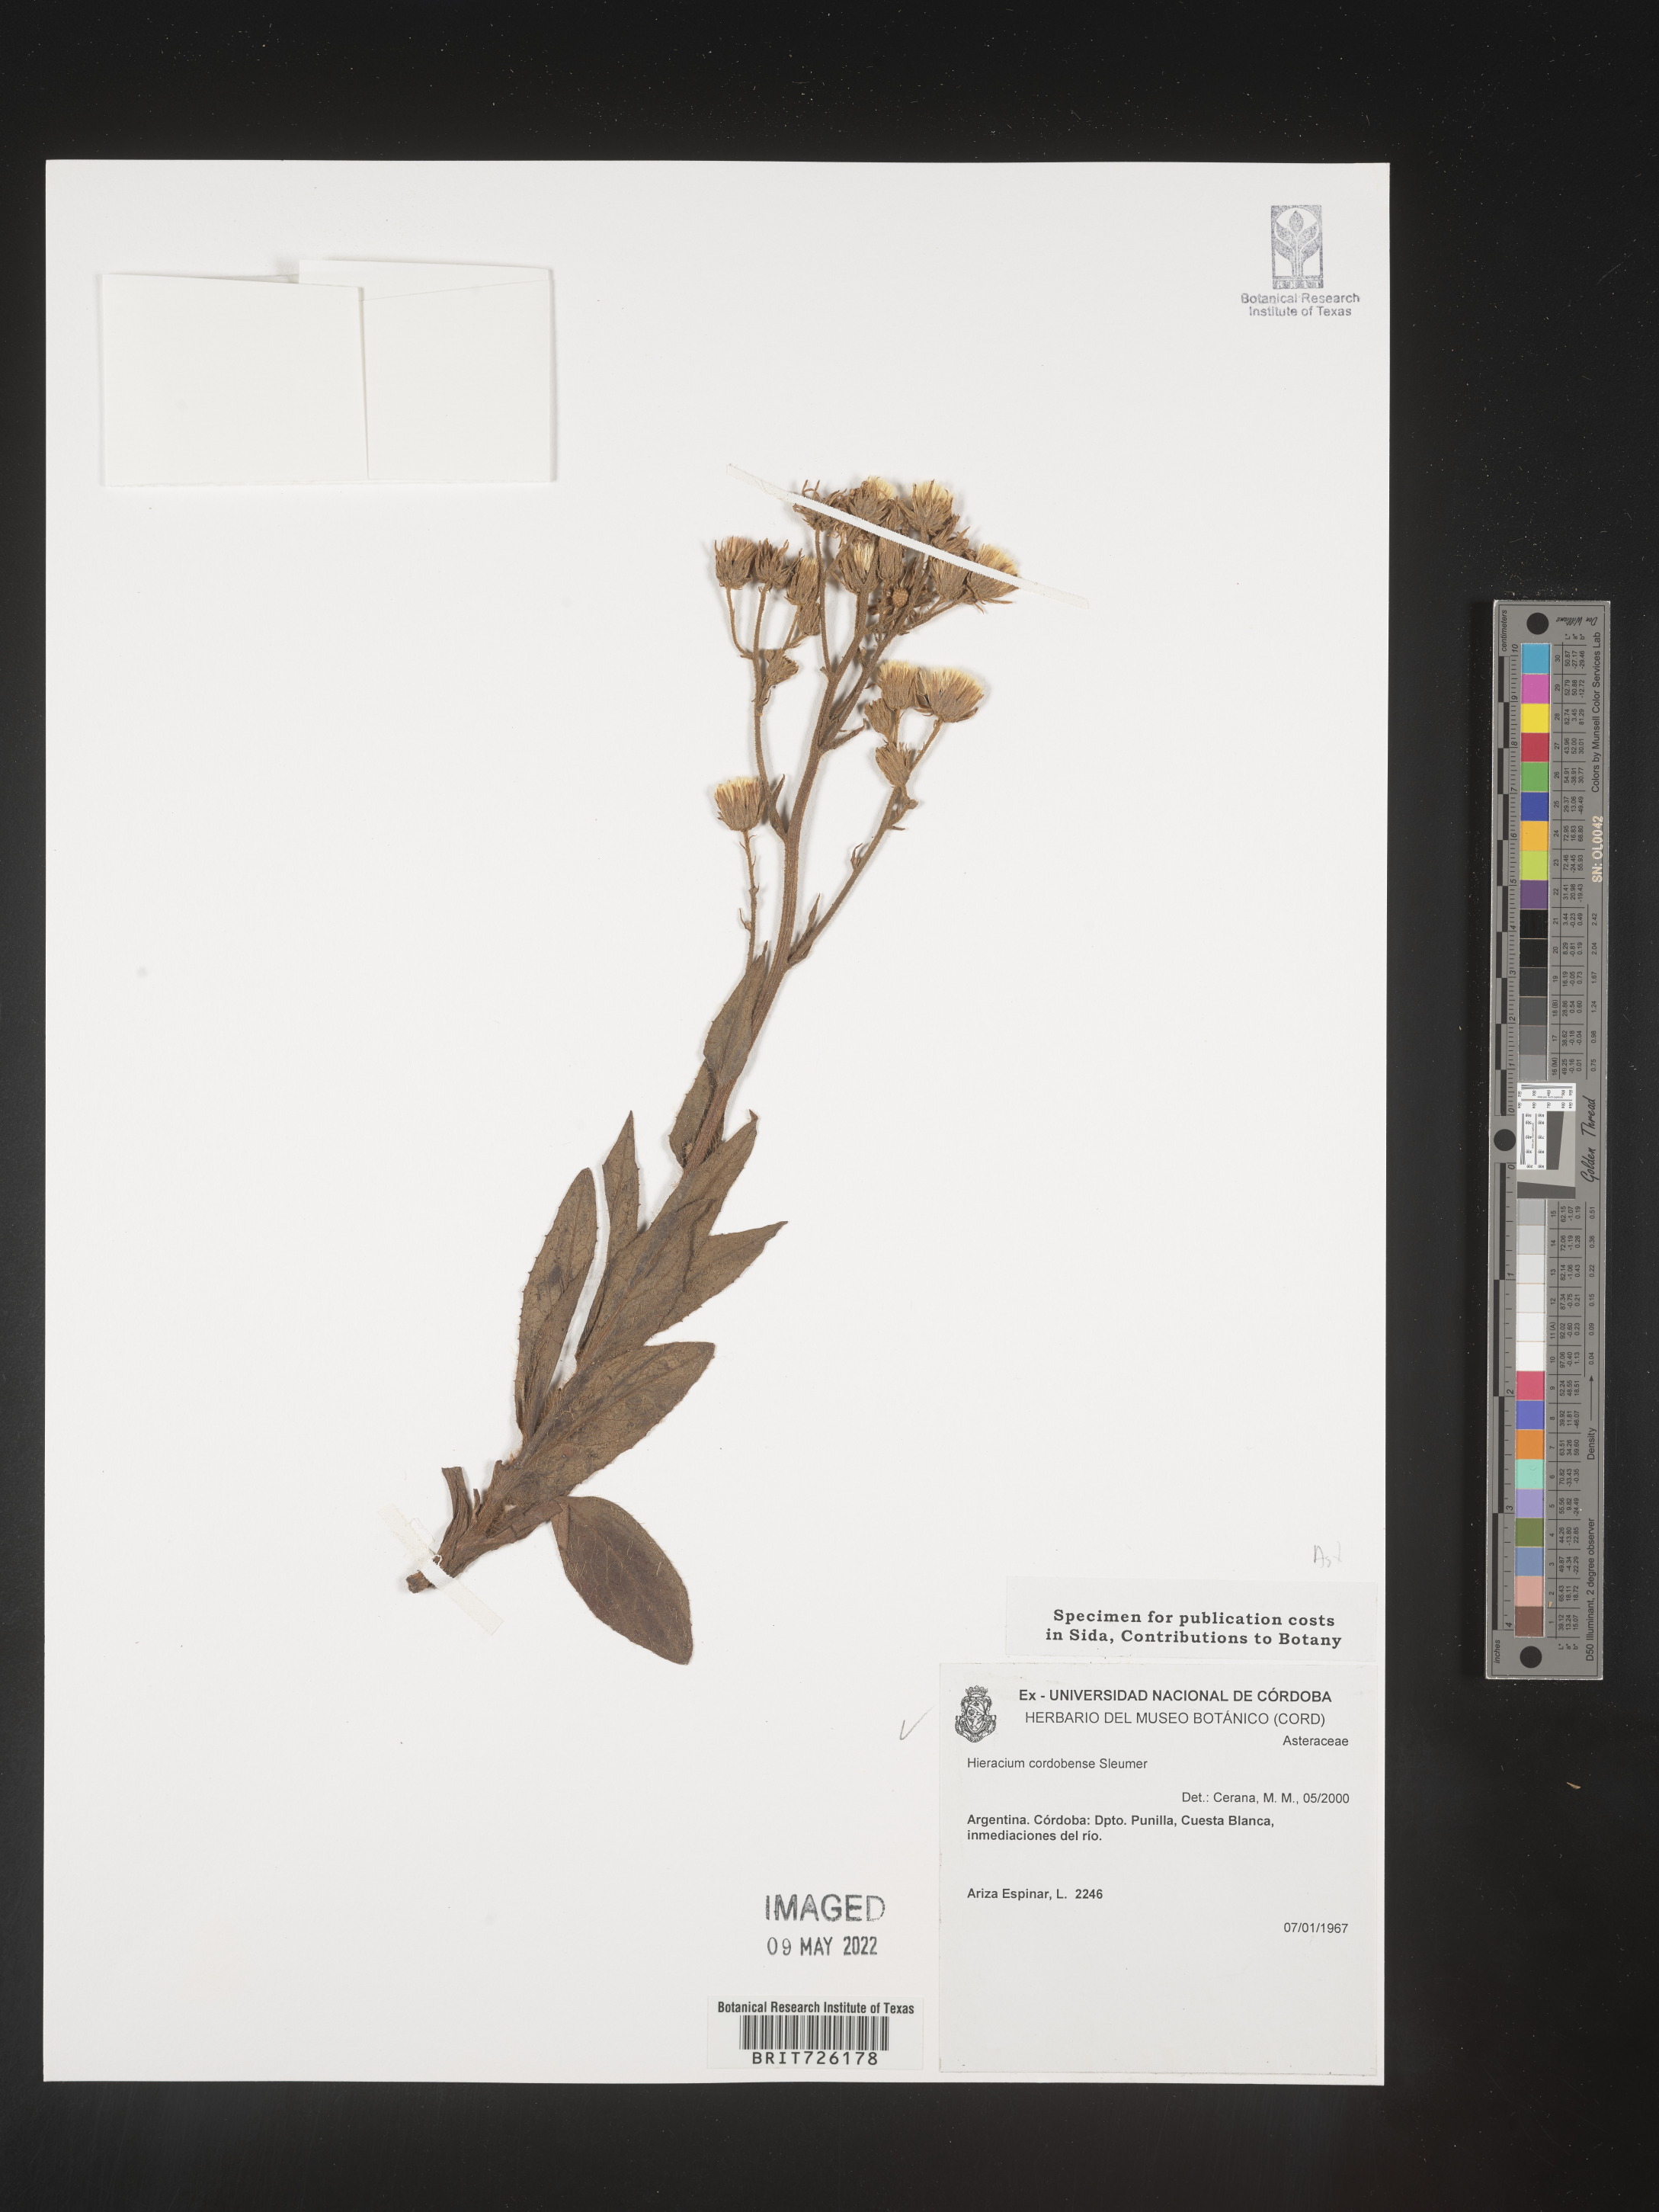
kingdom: Plantae
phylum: Tracheophyta
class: Magnoliopsida
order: Asterales
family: Asteraceae
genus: Hieracium
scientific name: Hieracium
